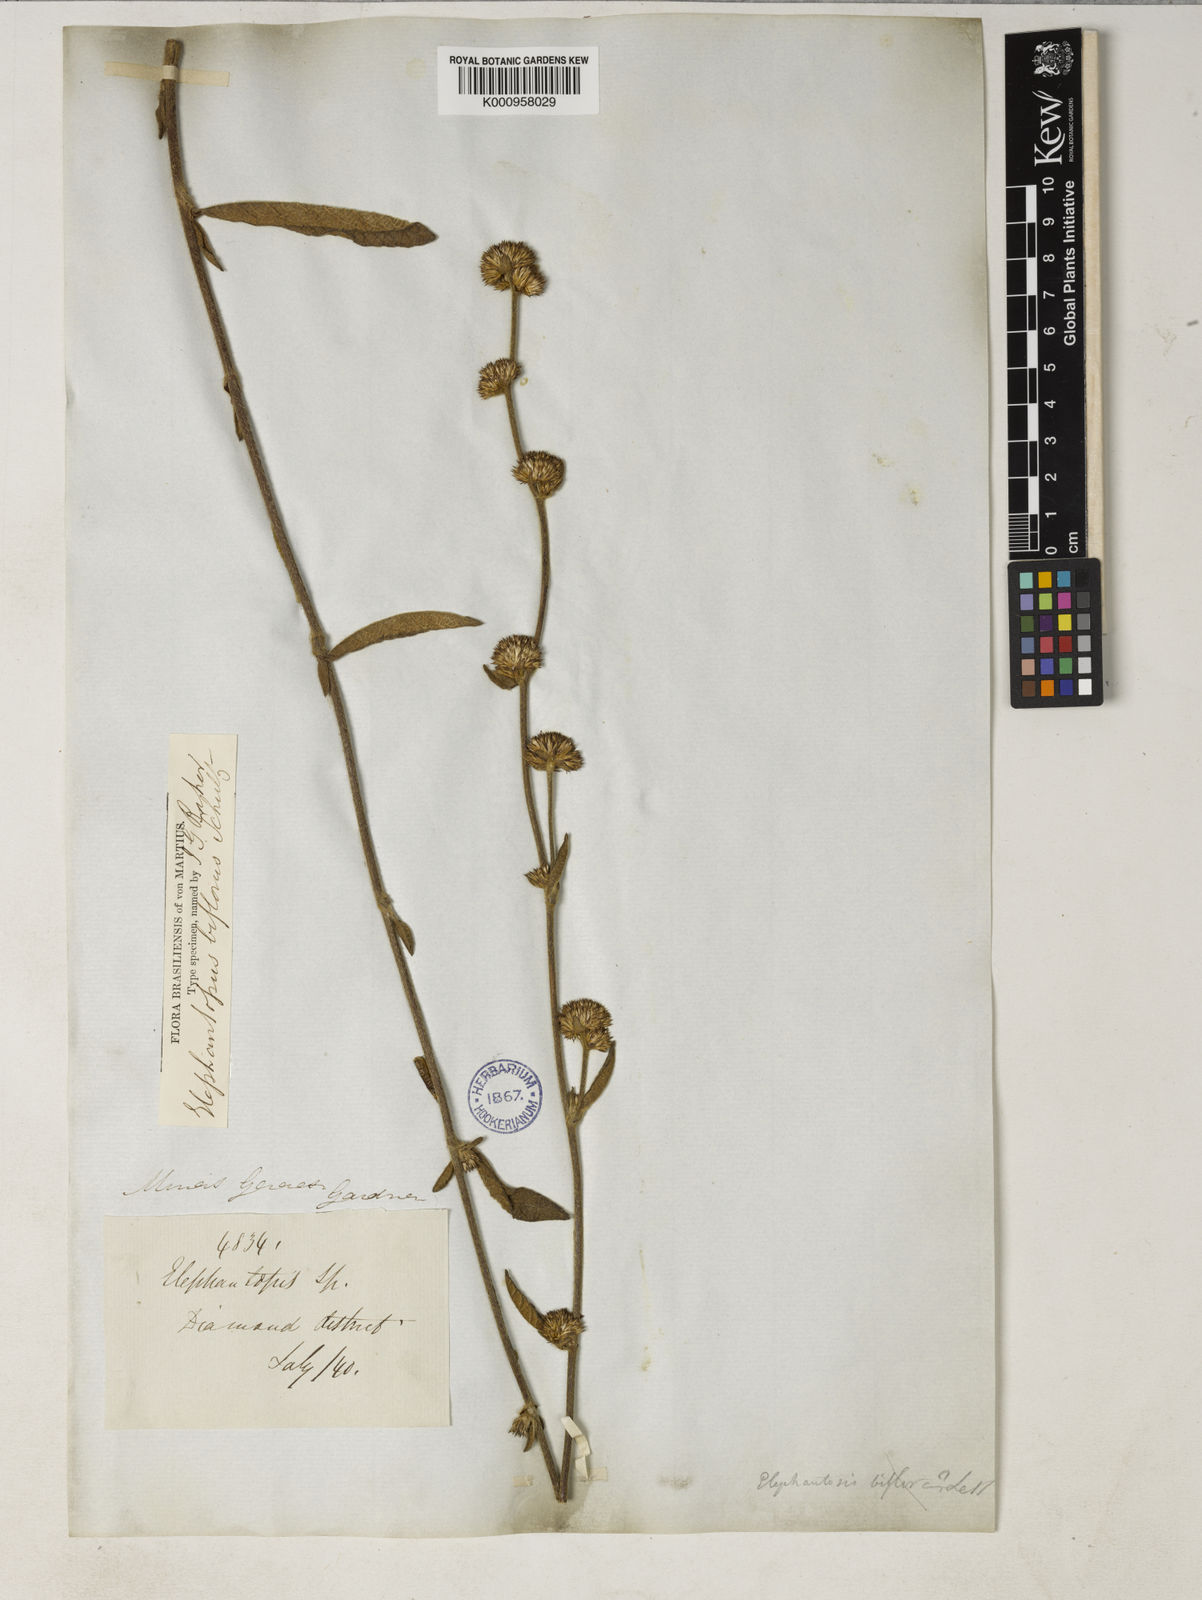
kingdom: Plantae
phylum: Tracheophyta
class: Magnoliopsida
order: Asterales
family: Asteraceae
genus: Elephantopus
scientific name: Elephantopus biflorus
